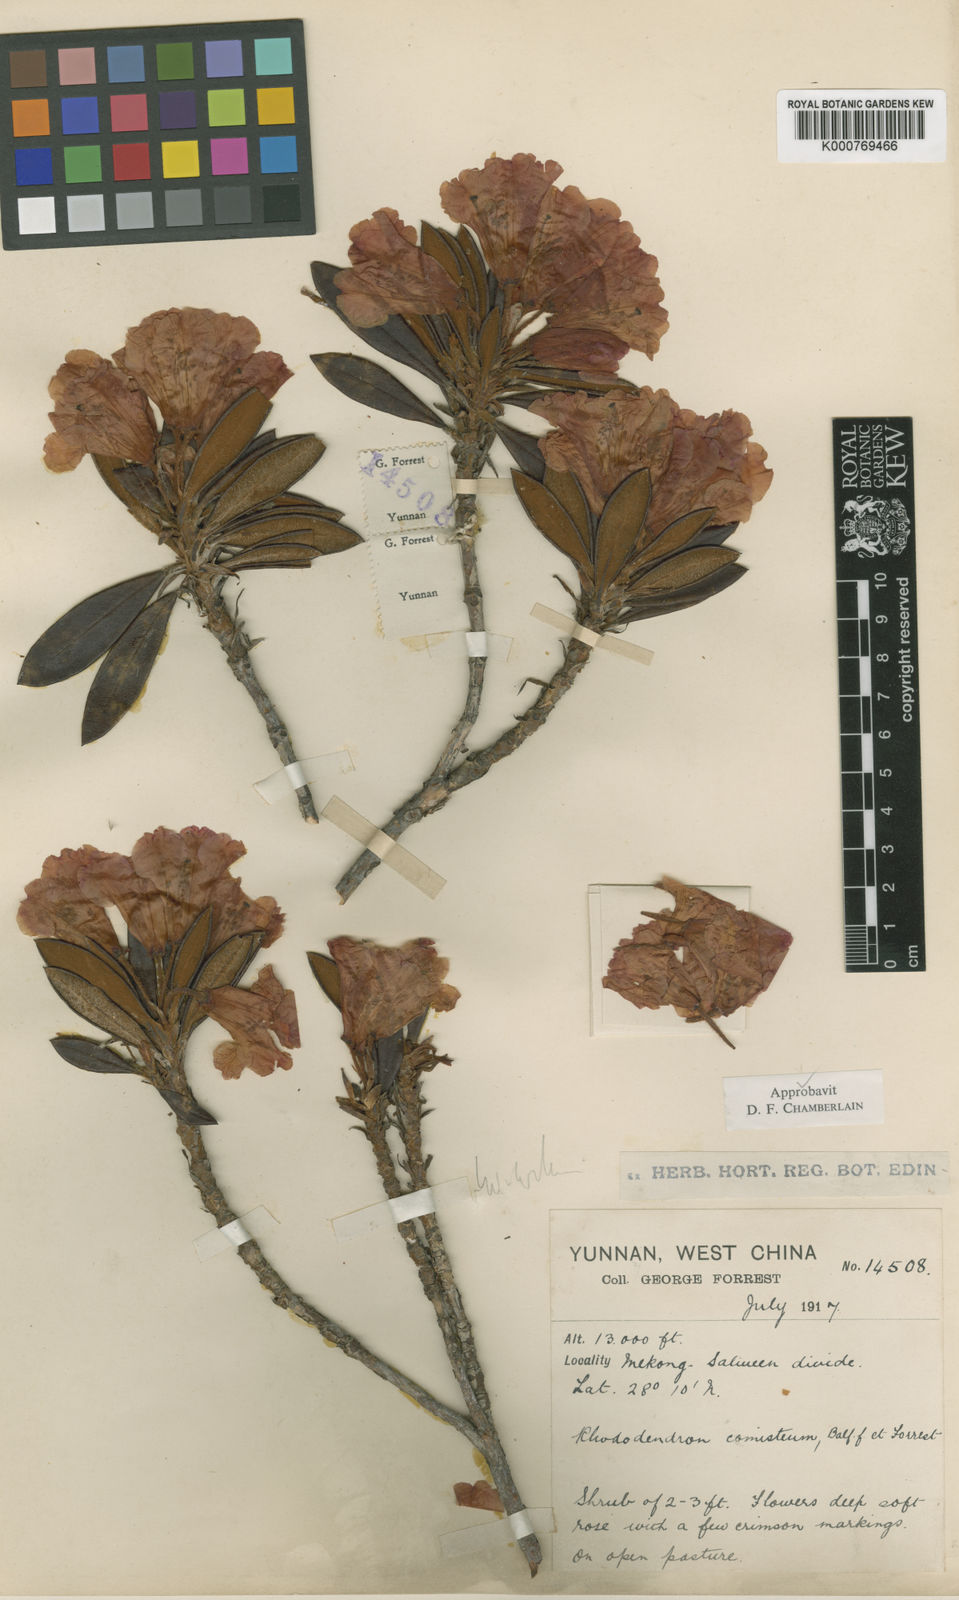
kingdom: Plantae
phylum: Tracheophyta
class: Magnoliopsida
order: Ericales
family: Ericaceae
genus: Rhododendron
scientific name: Rhododendron comisteum
